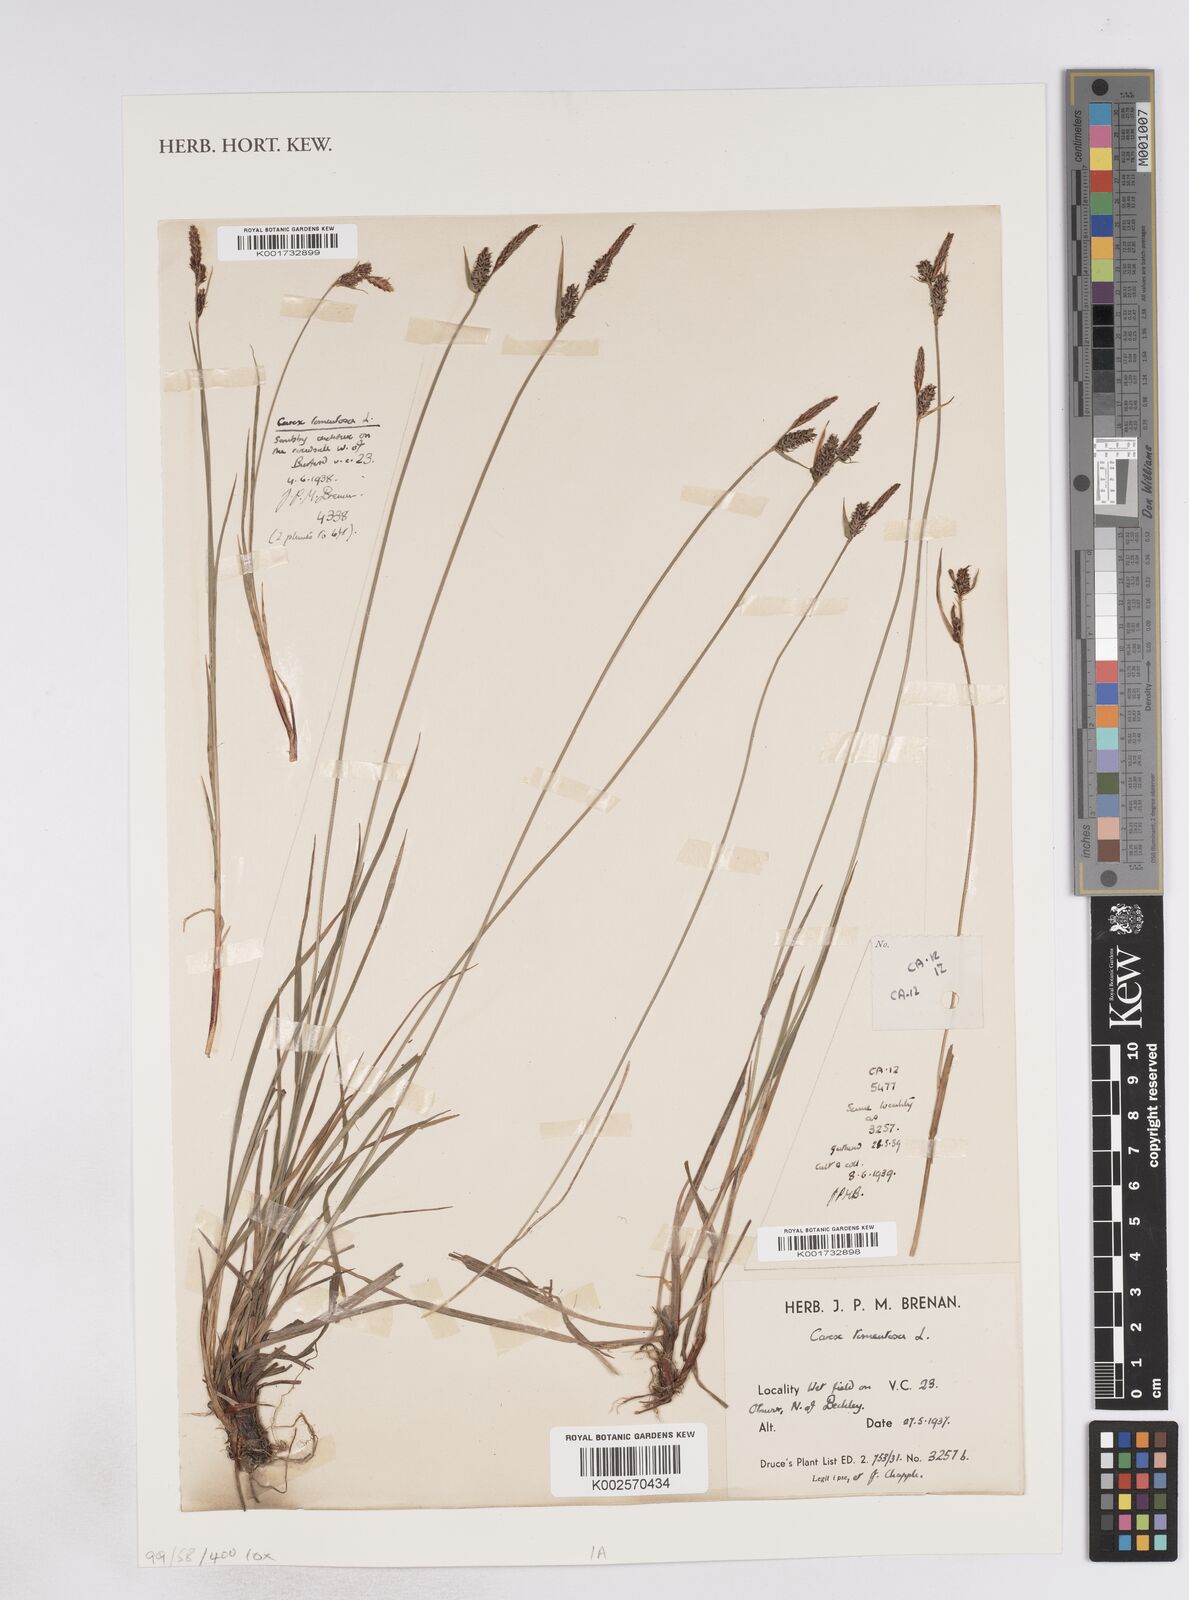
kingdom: Plantae
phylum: Tracheophyta
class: Liliopsida
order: Poales
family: Cyperaceae
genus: Carex
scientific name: Carex montana
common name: Soft-leaved sedge
